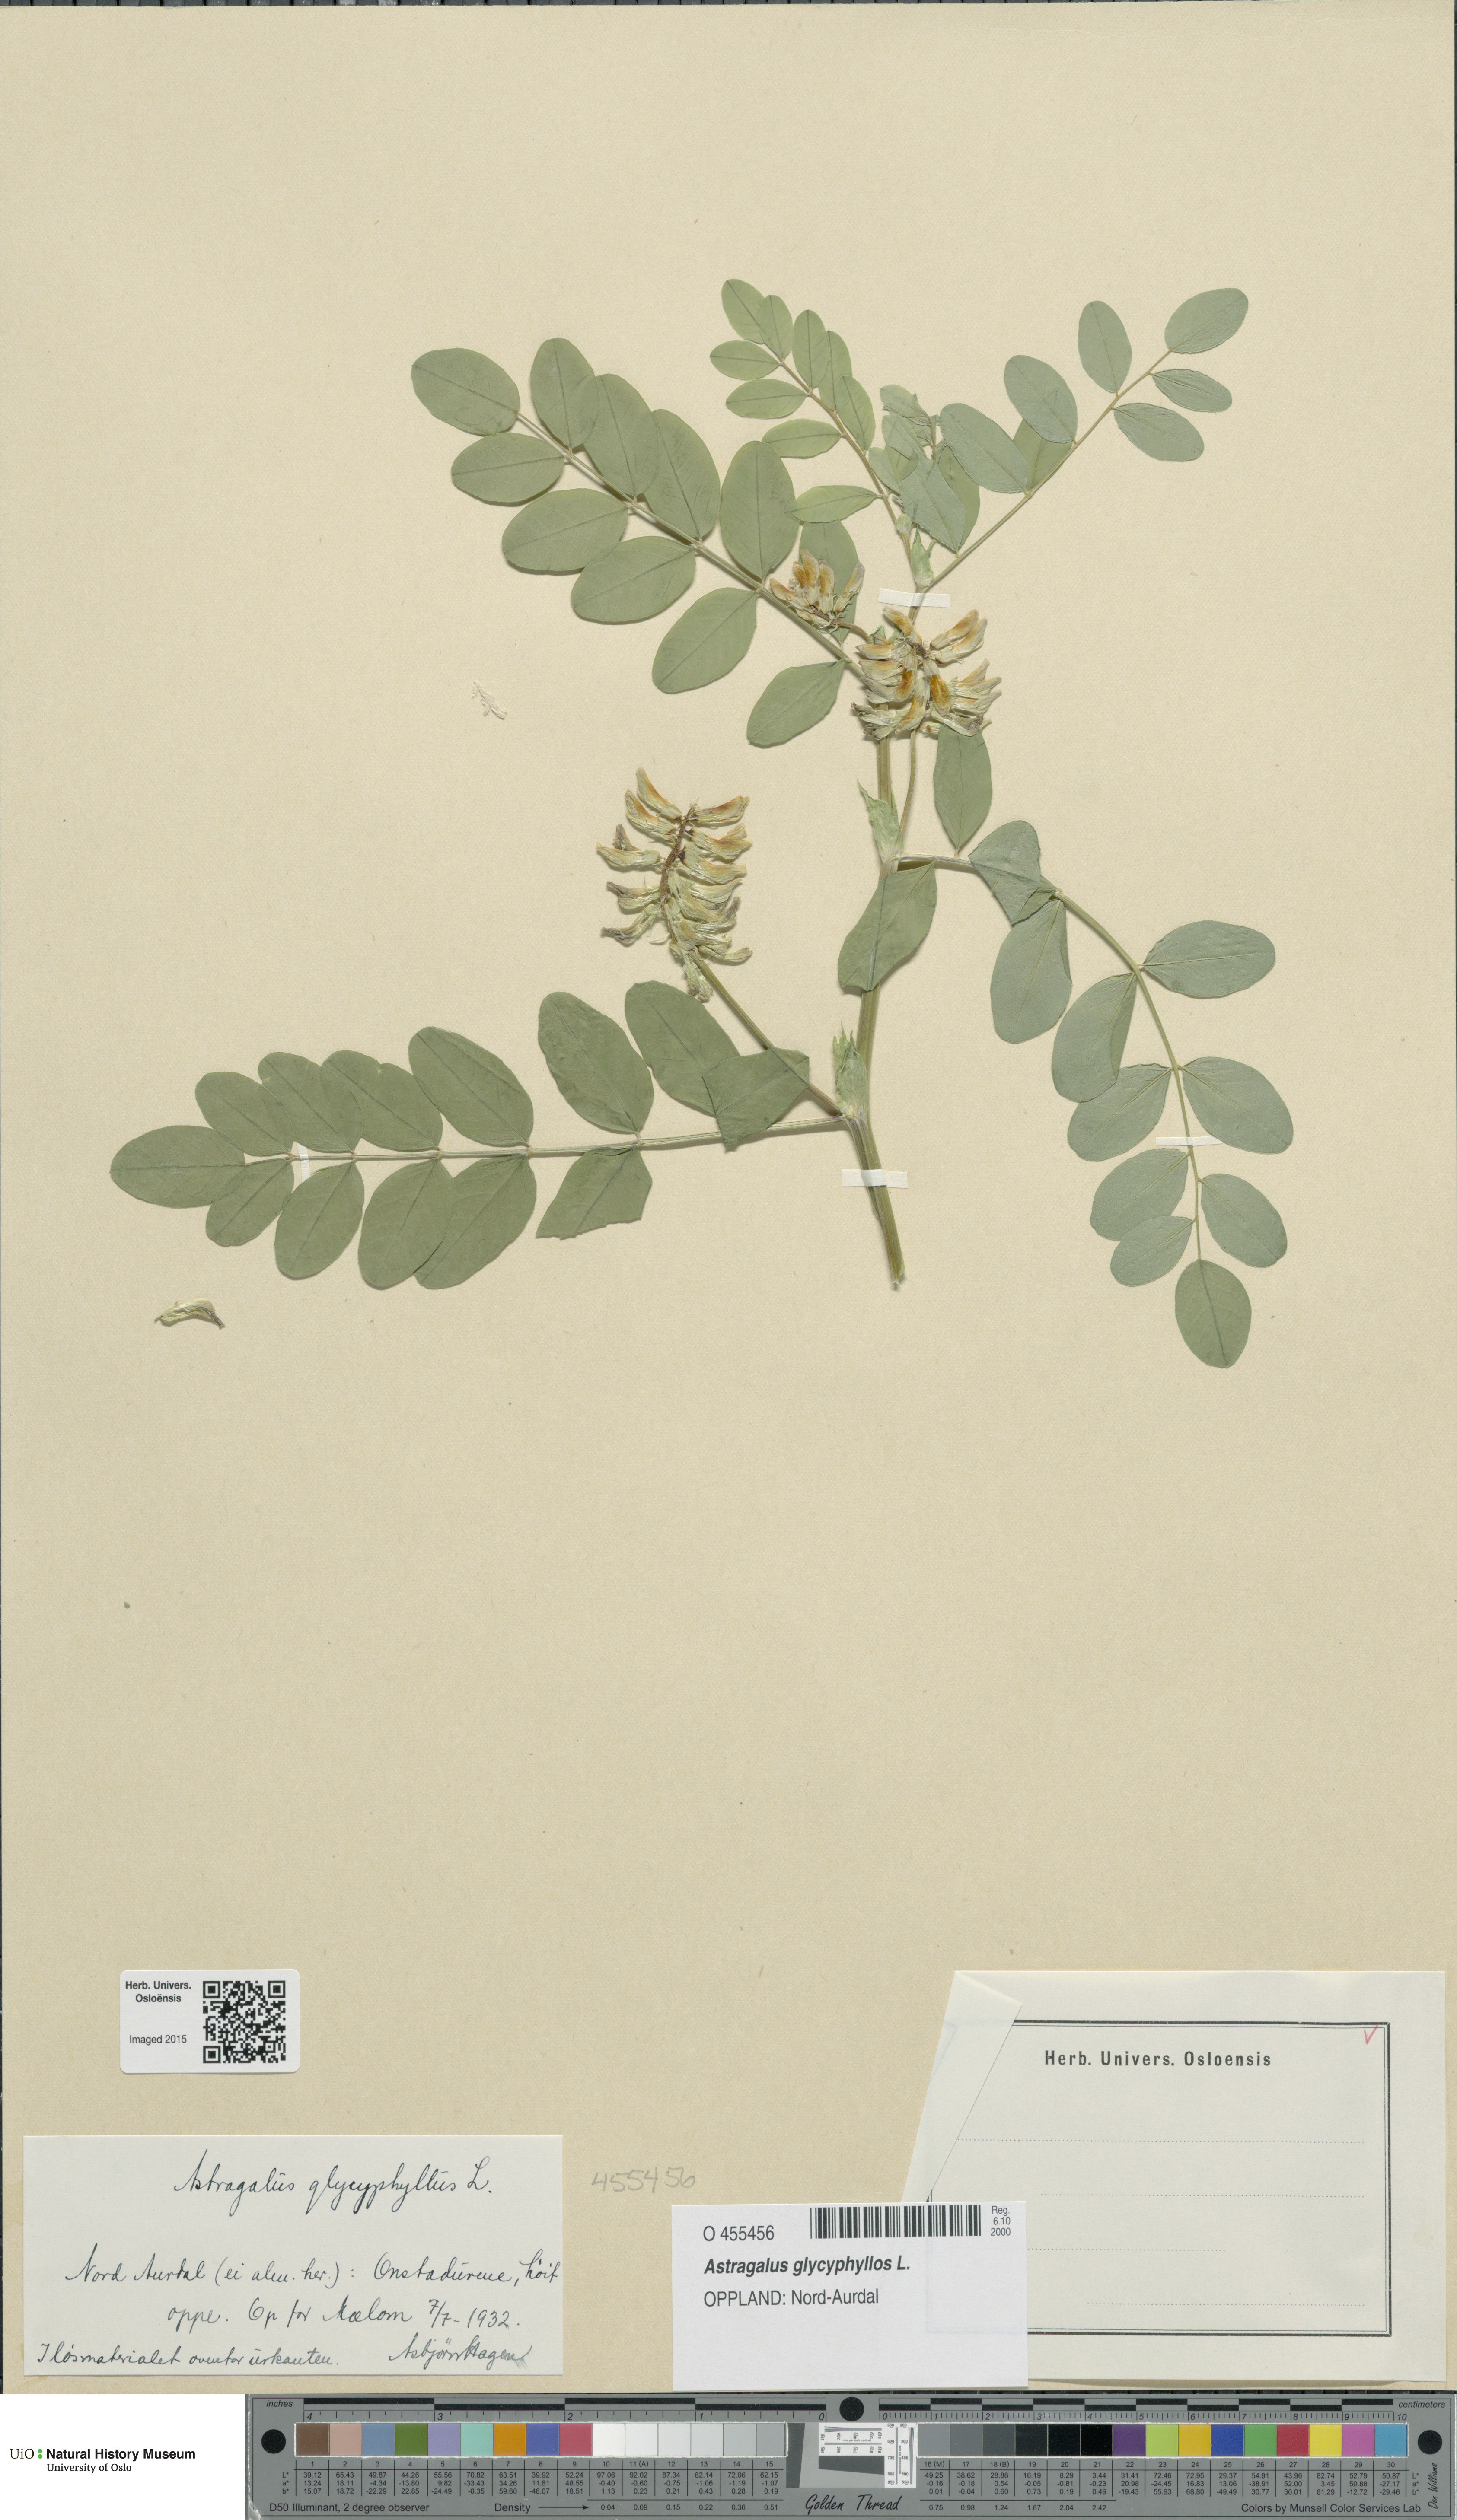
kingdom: Plantae
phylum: Tracheophyta
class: Magnoliopsida
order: Fabales
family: Fabaceae
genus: Astragalus
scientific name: Astragalus glycyphyllos
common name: Wild liquorice
